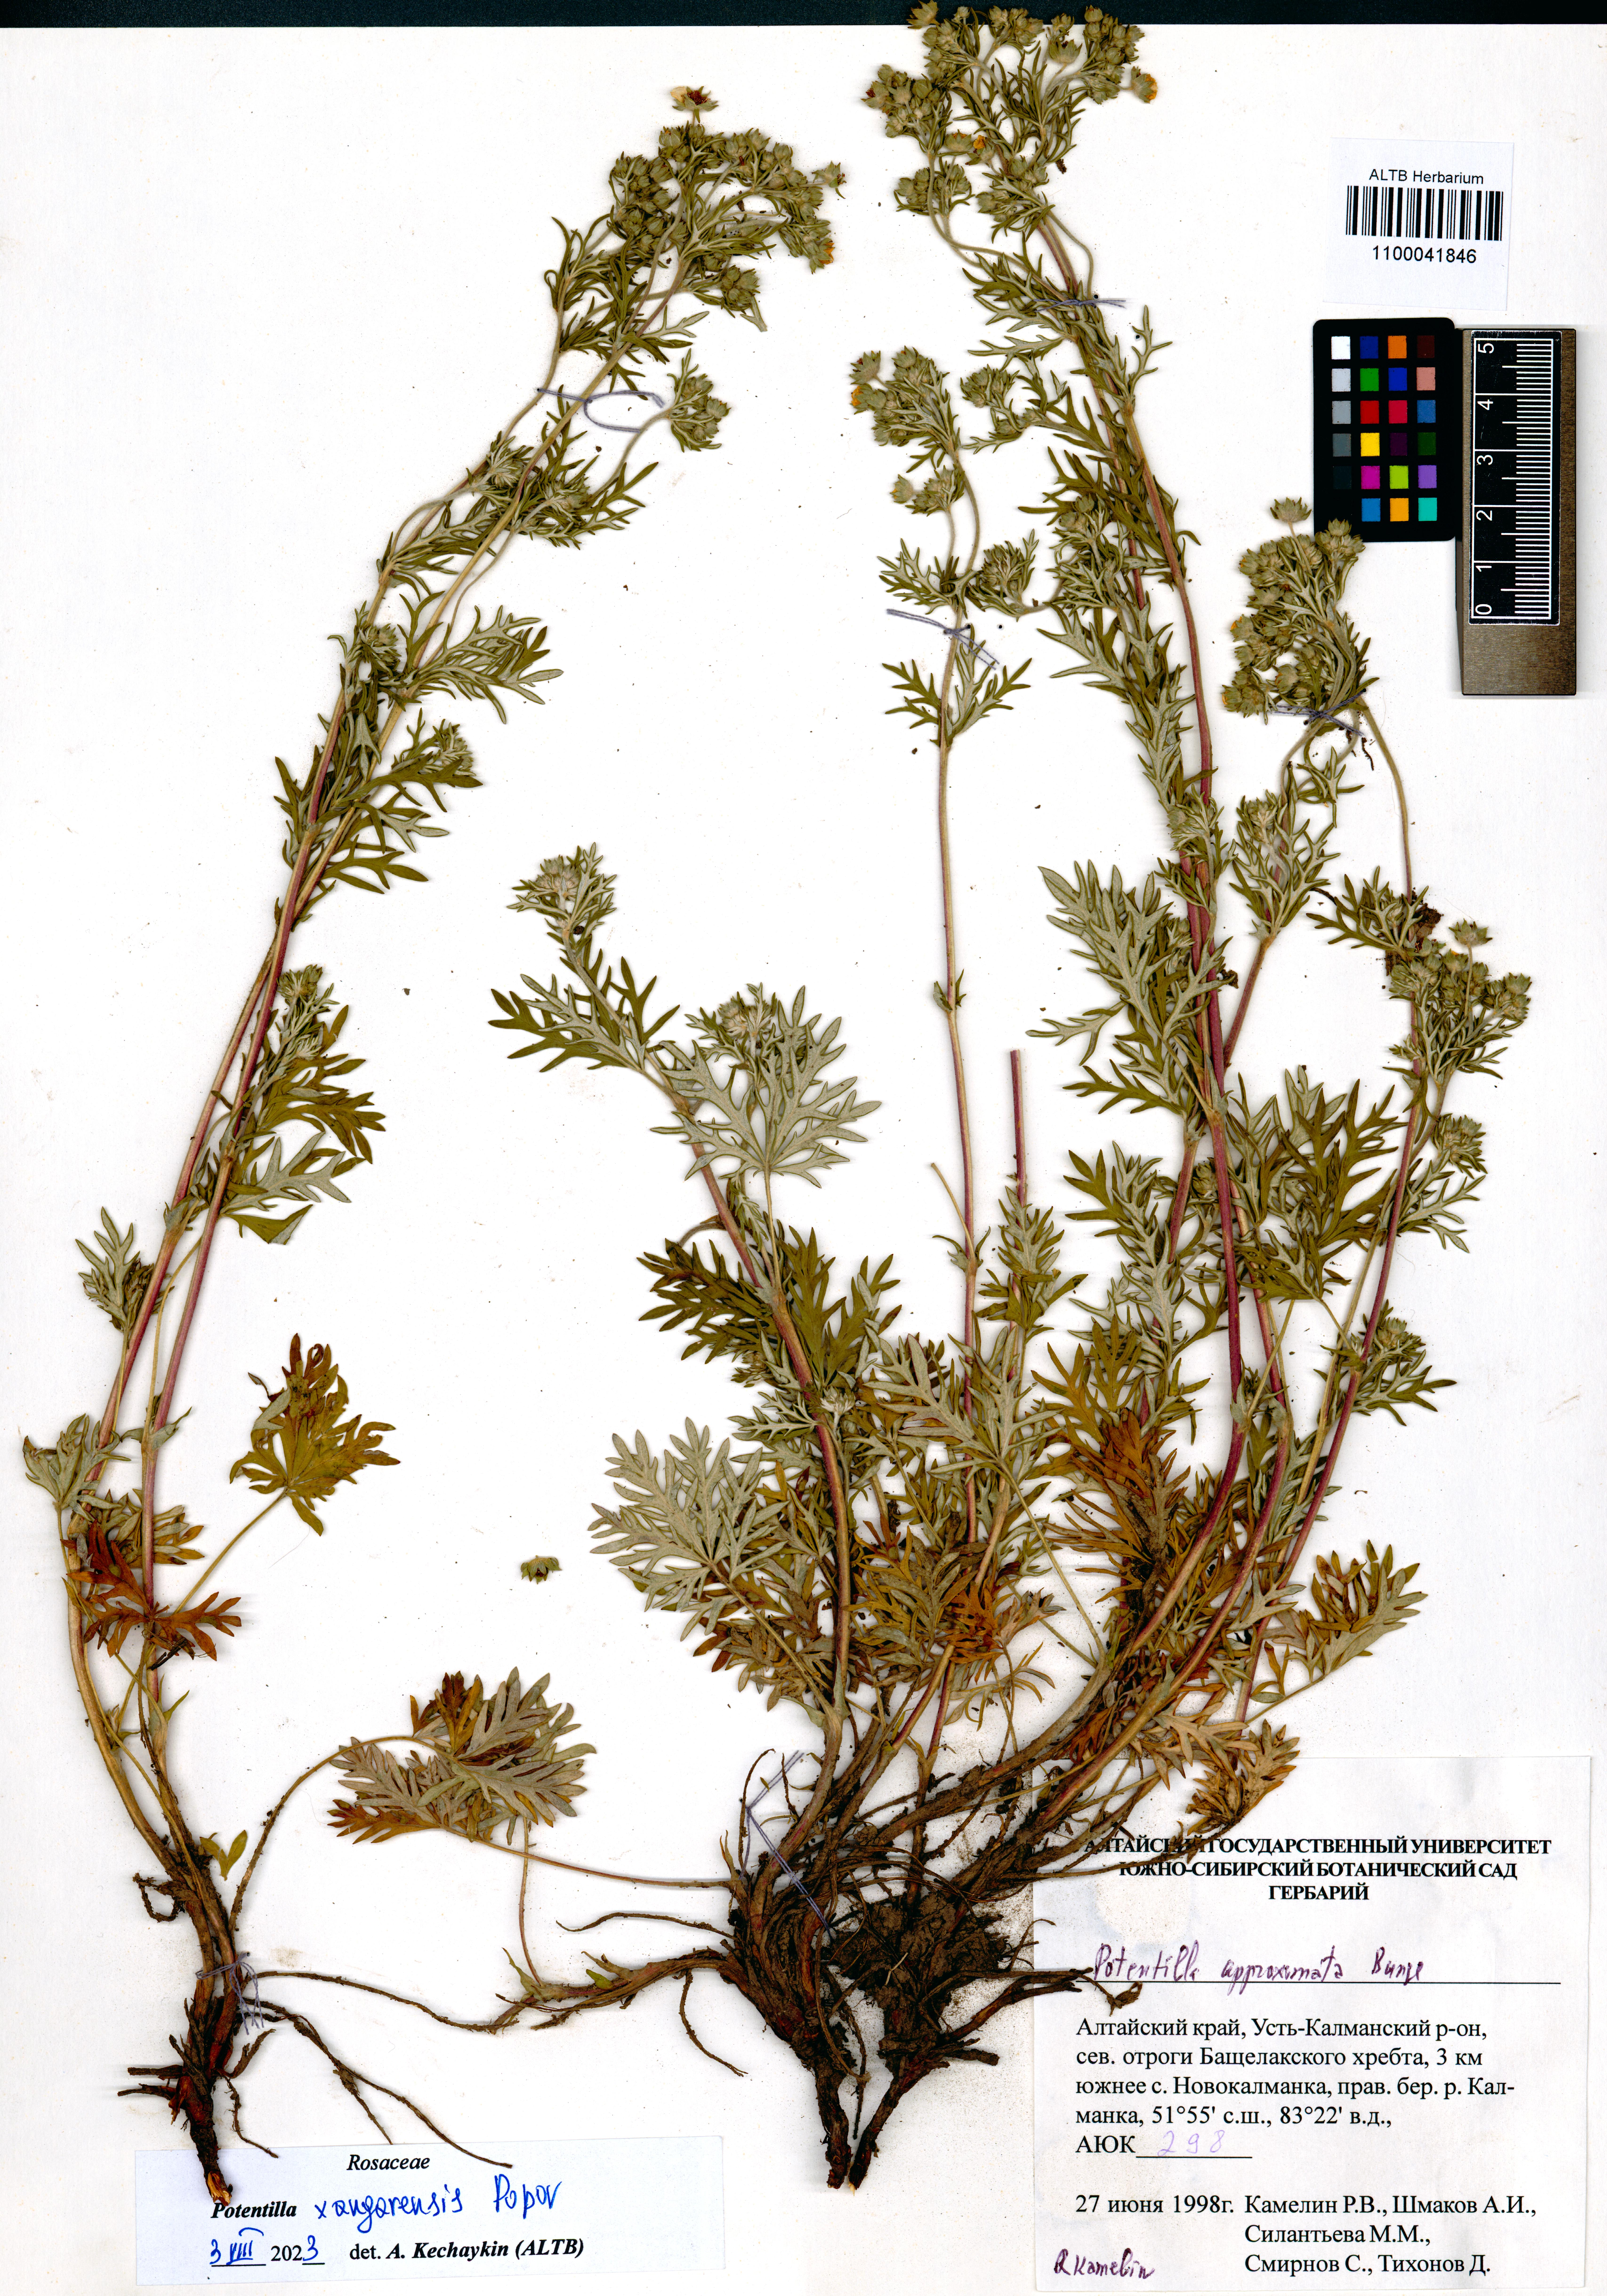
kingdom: Plantae
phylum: Tracheophyta
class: Magnoliopsida
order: Rosales
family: Rosaceae
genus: Potentilla
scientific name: Potentilla angarensis
